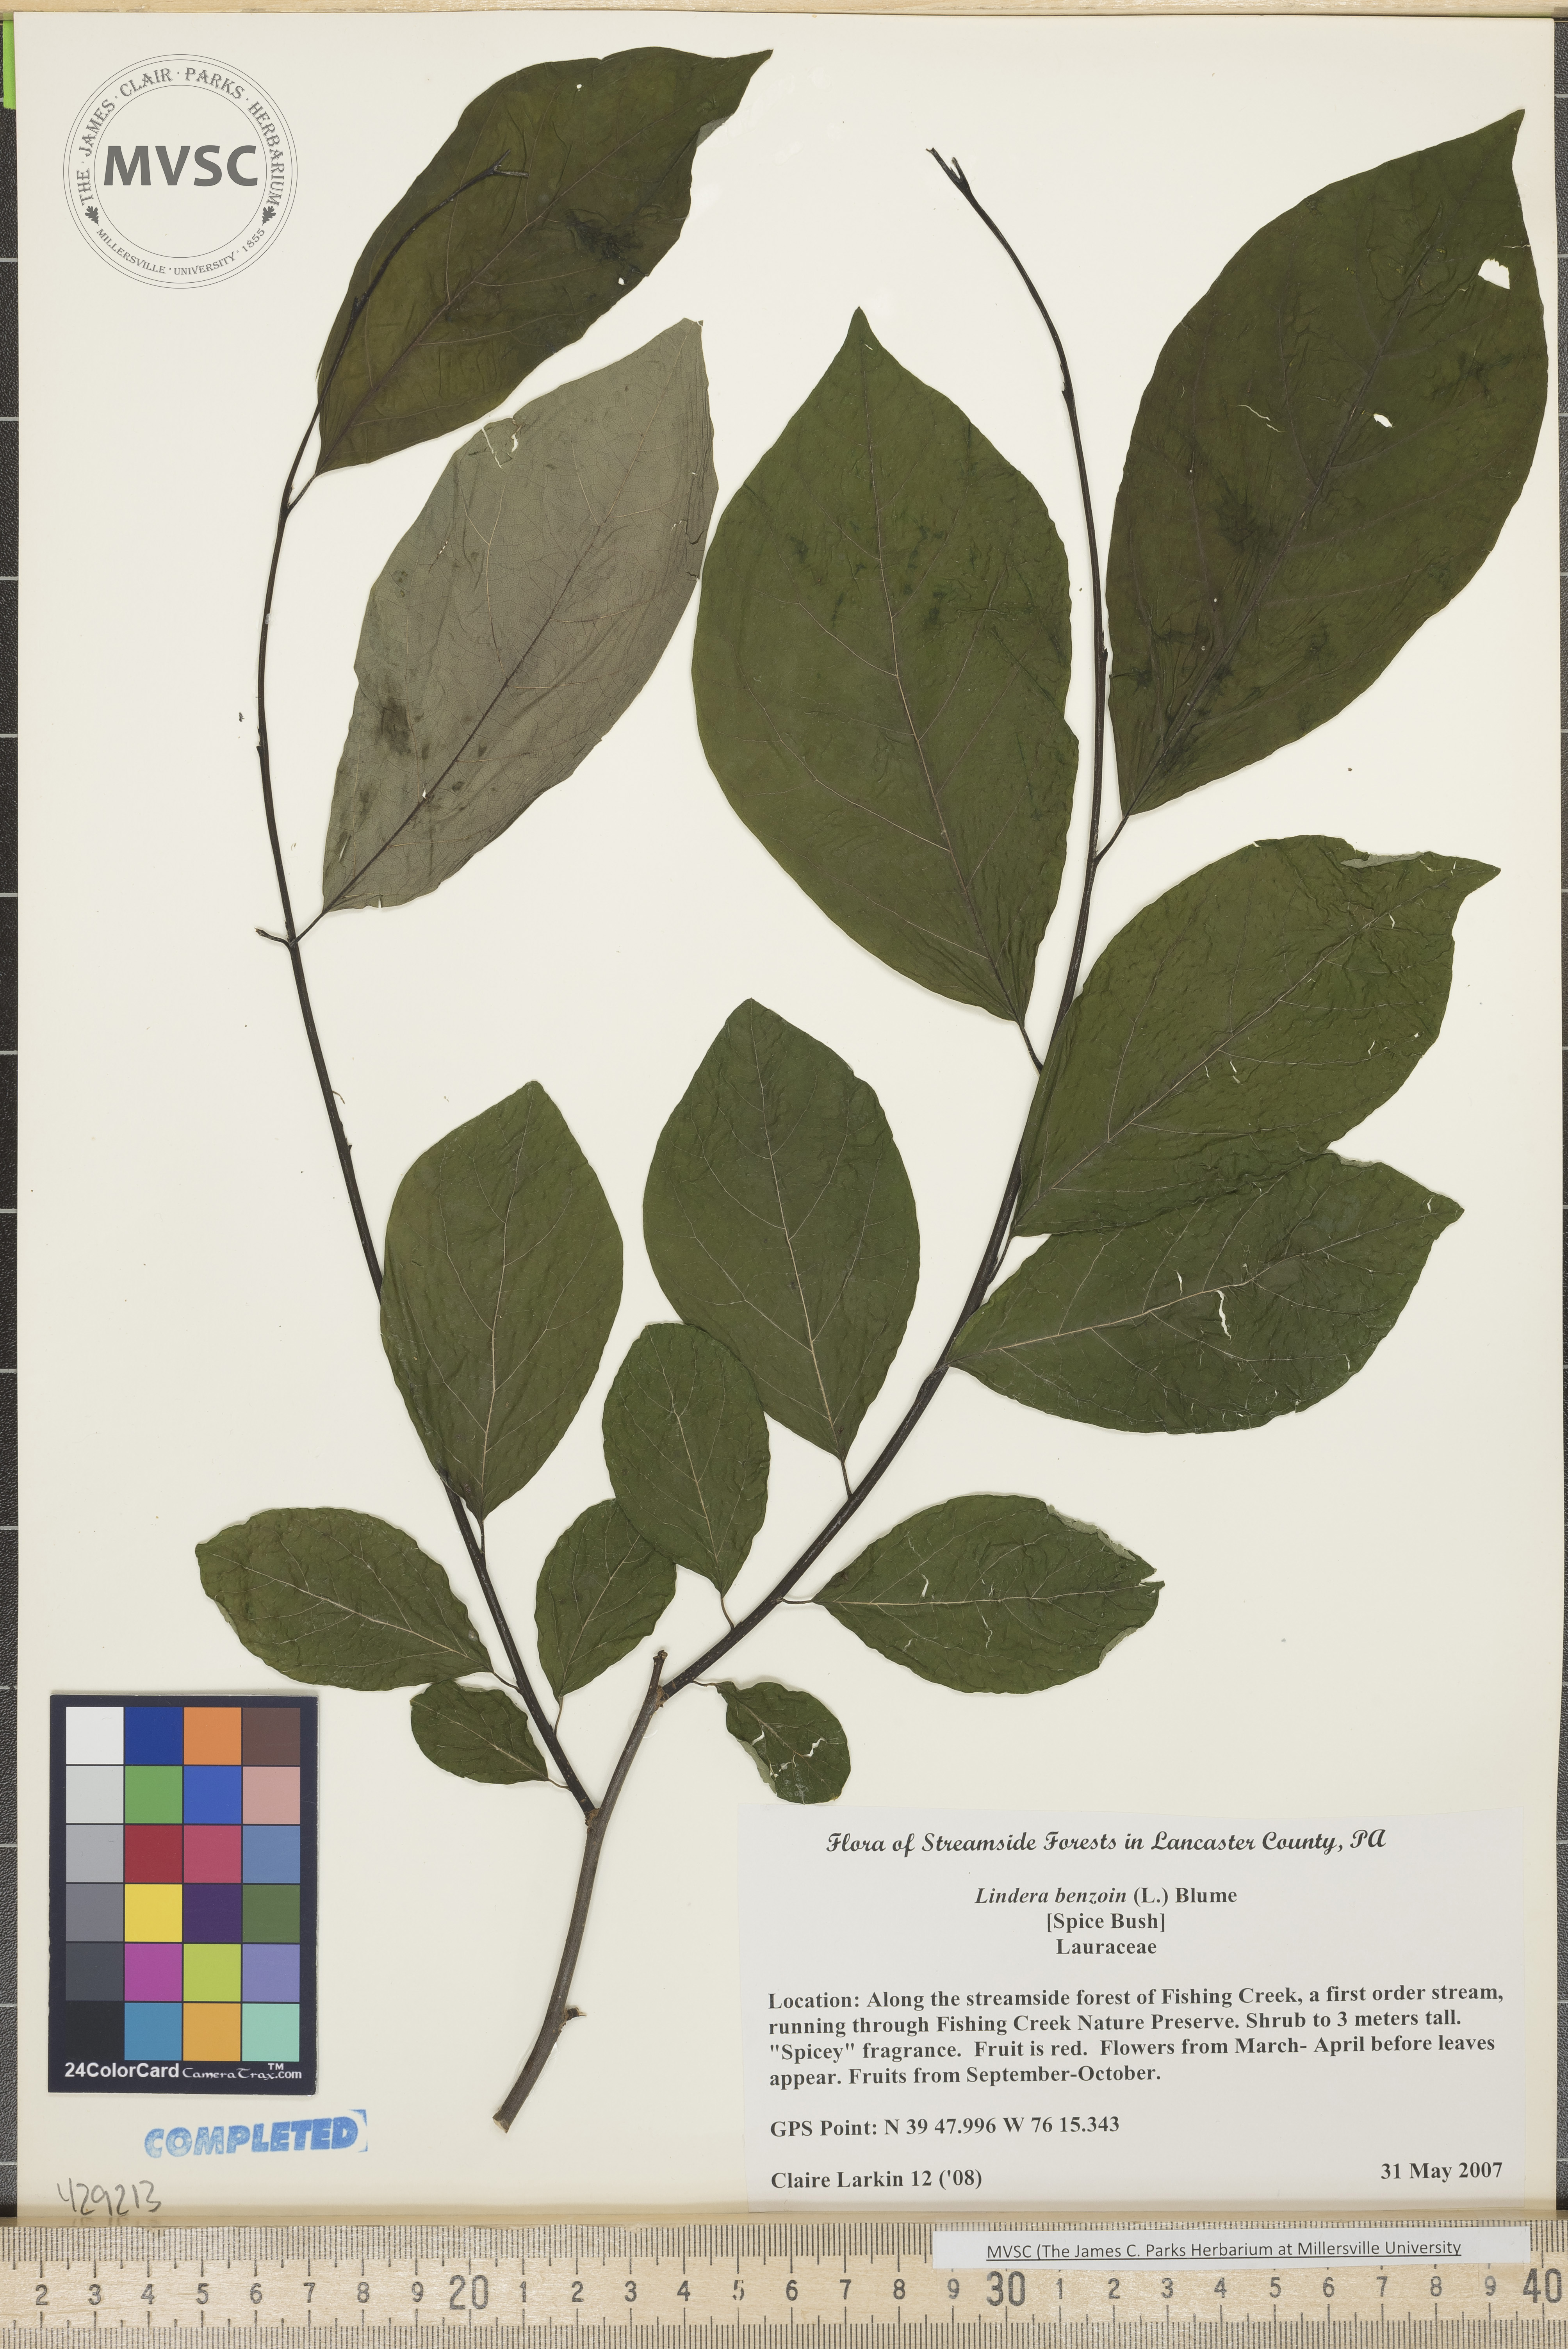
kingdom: Plantae
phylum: Tracheophyta
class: Magnoliopsida
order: Laurales
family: Lauraceae
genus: Lindera
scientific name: Lindera benzoin
